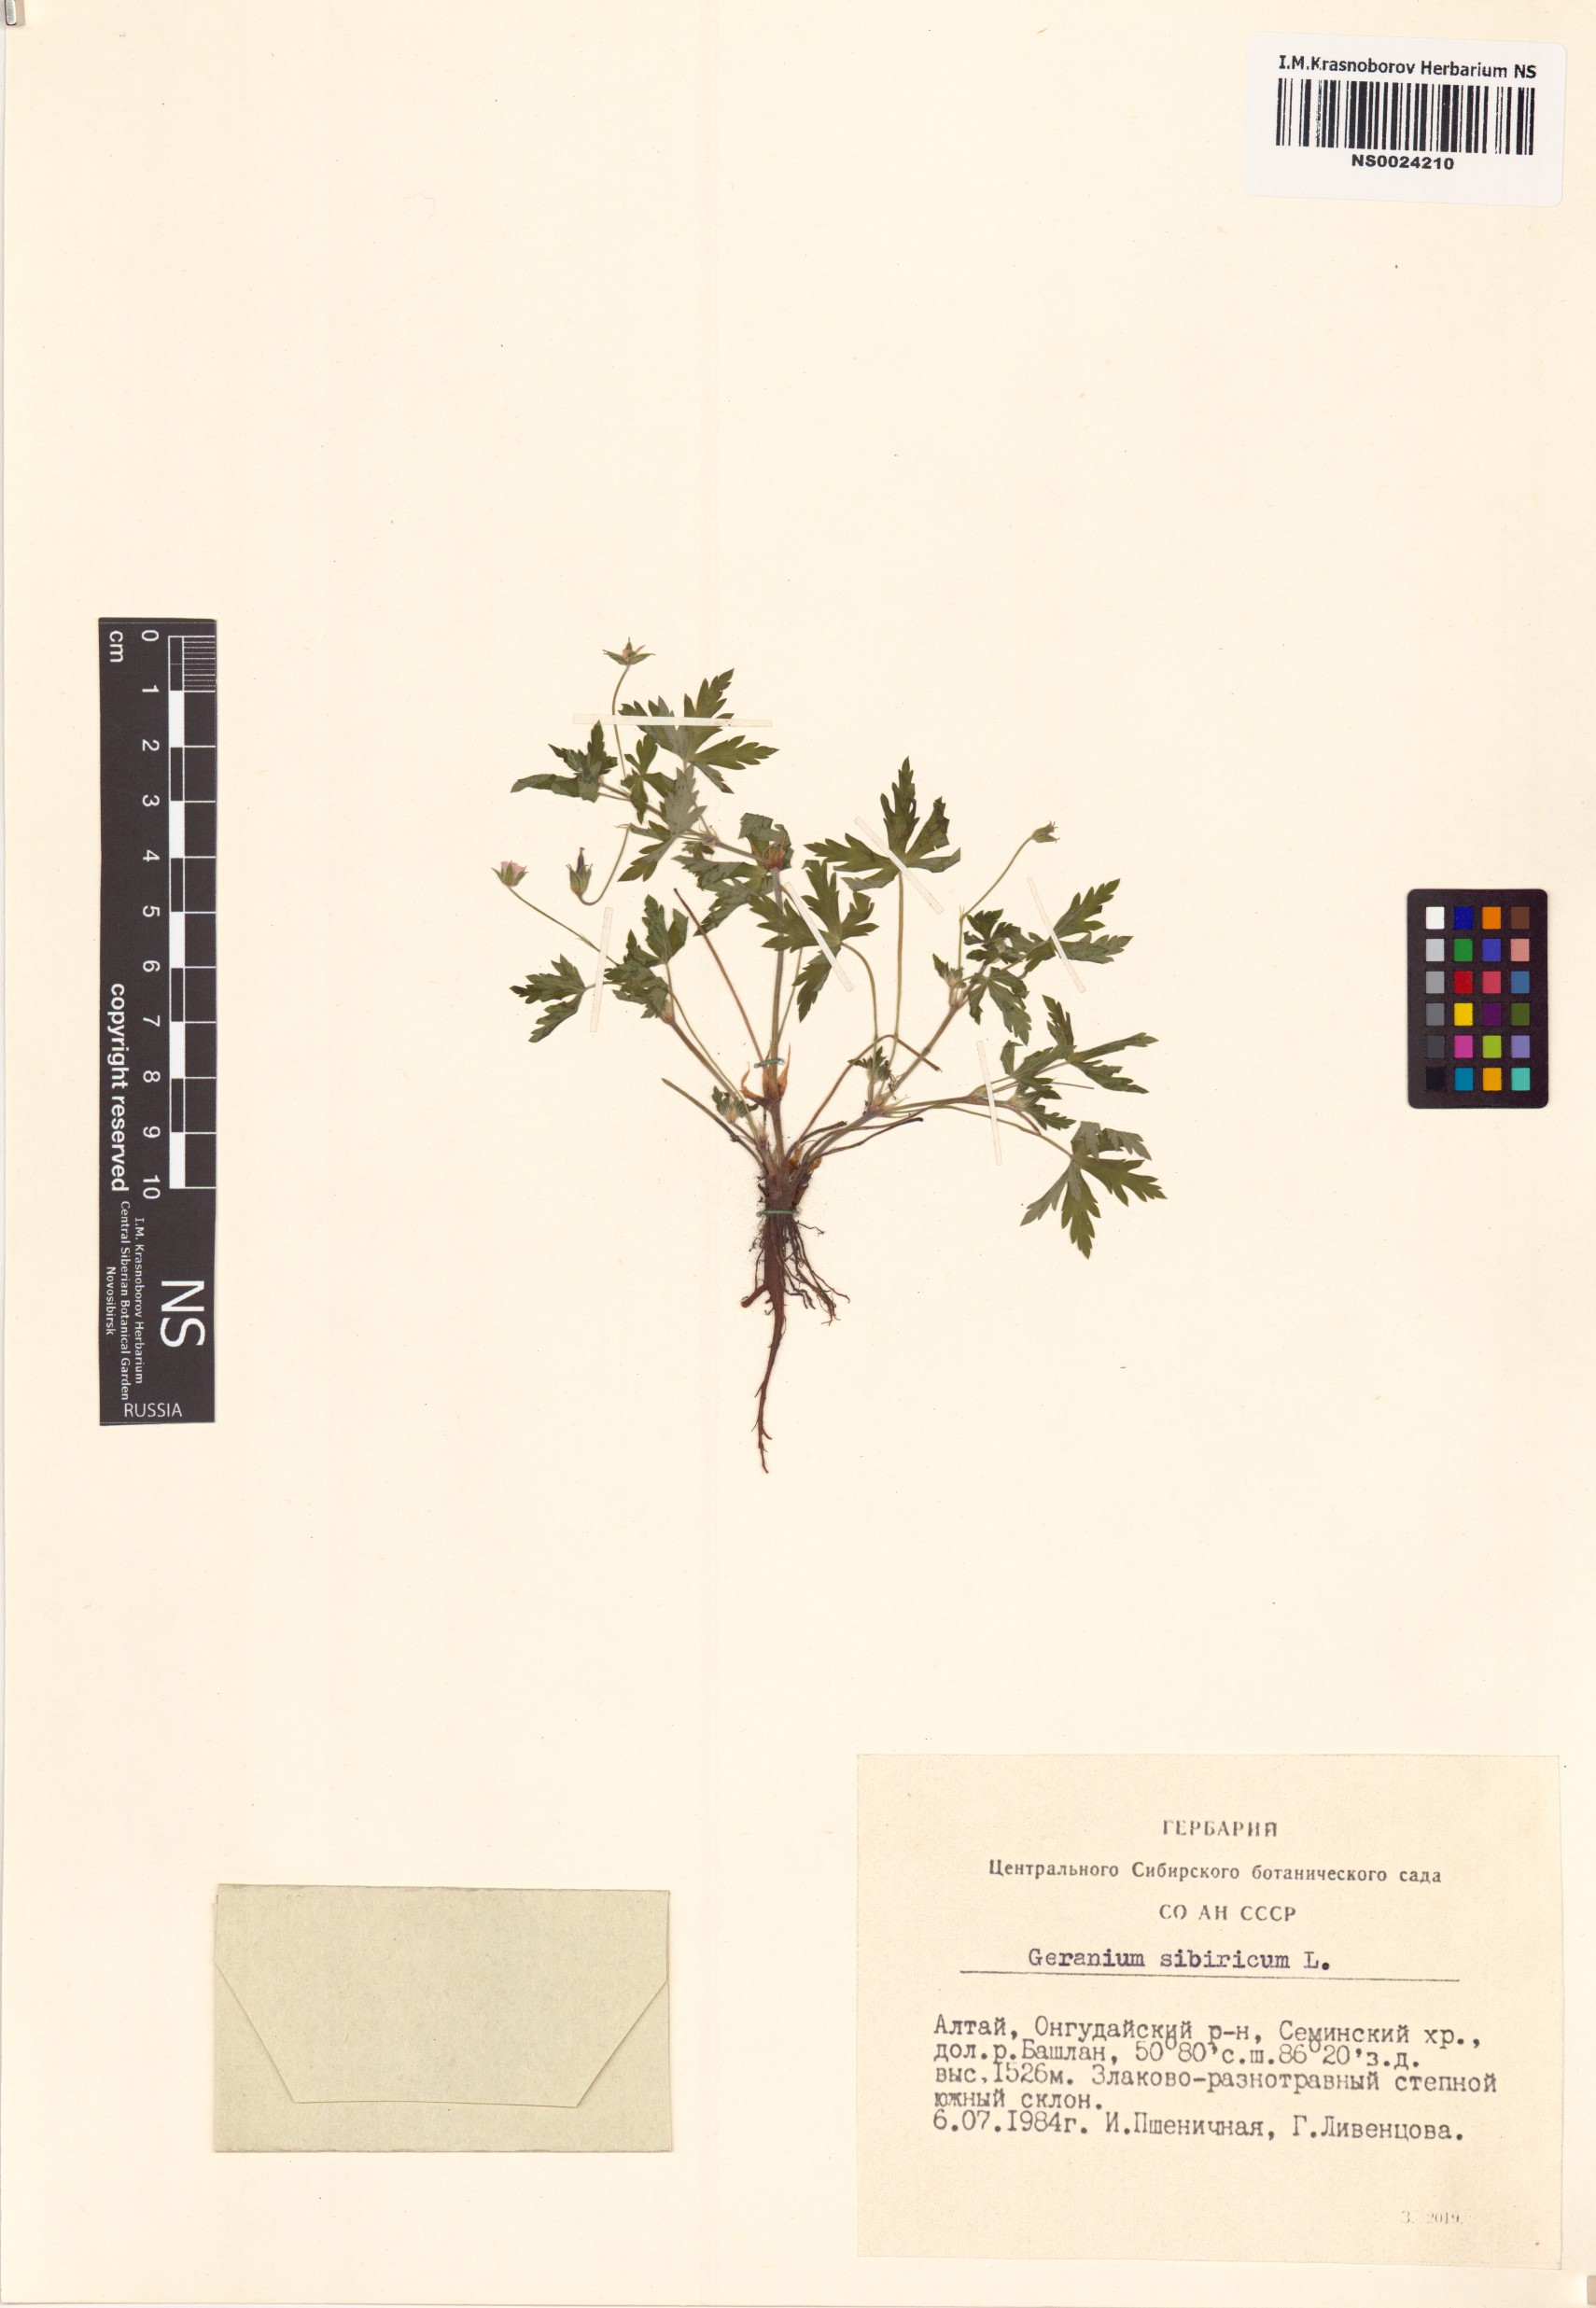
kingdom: Plantae
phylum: Tracheophyta
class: Magnoliopsida
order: Geraniales
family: Geraniaceae
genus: Geranium
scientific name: Geranium sibiricum
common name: Siberian crane's-bill
